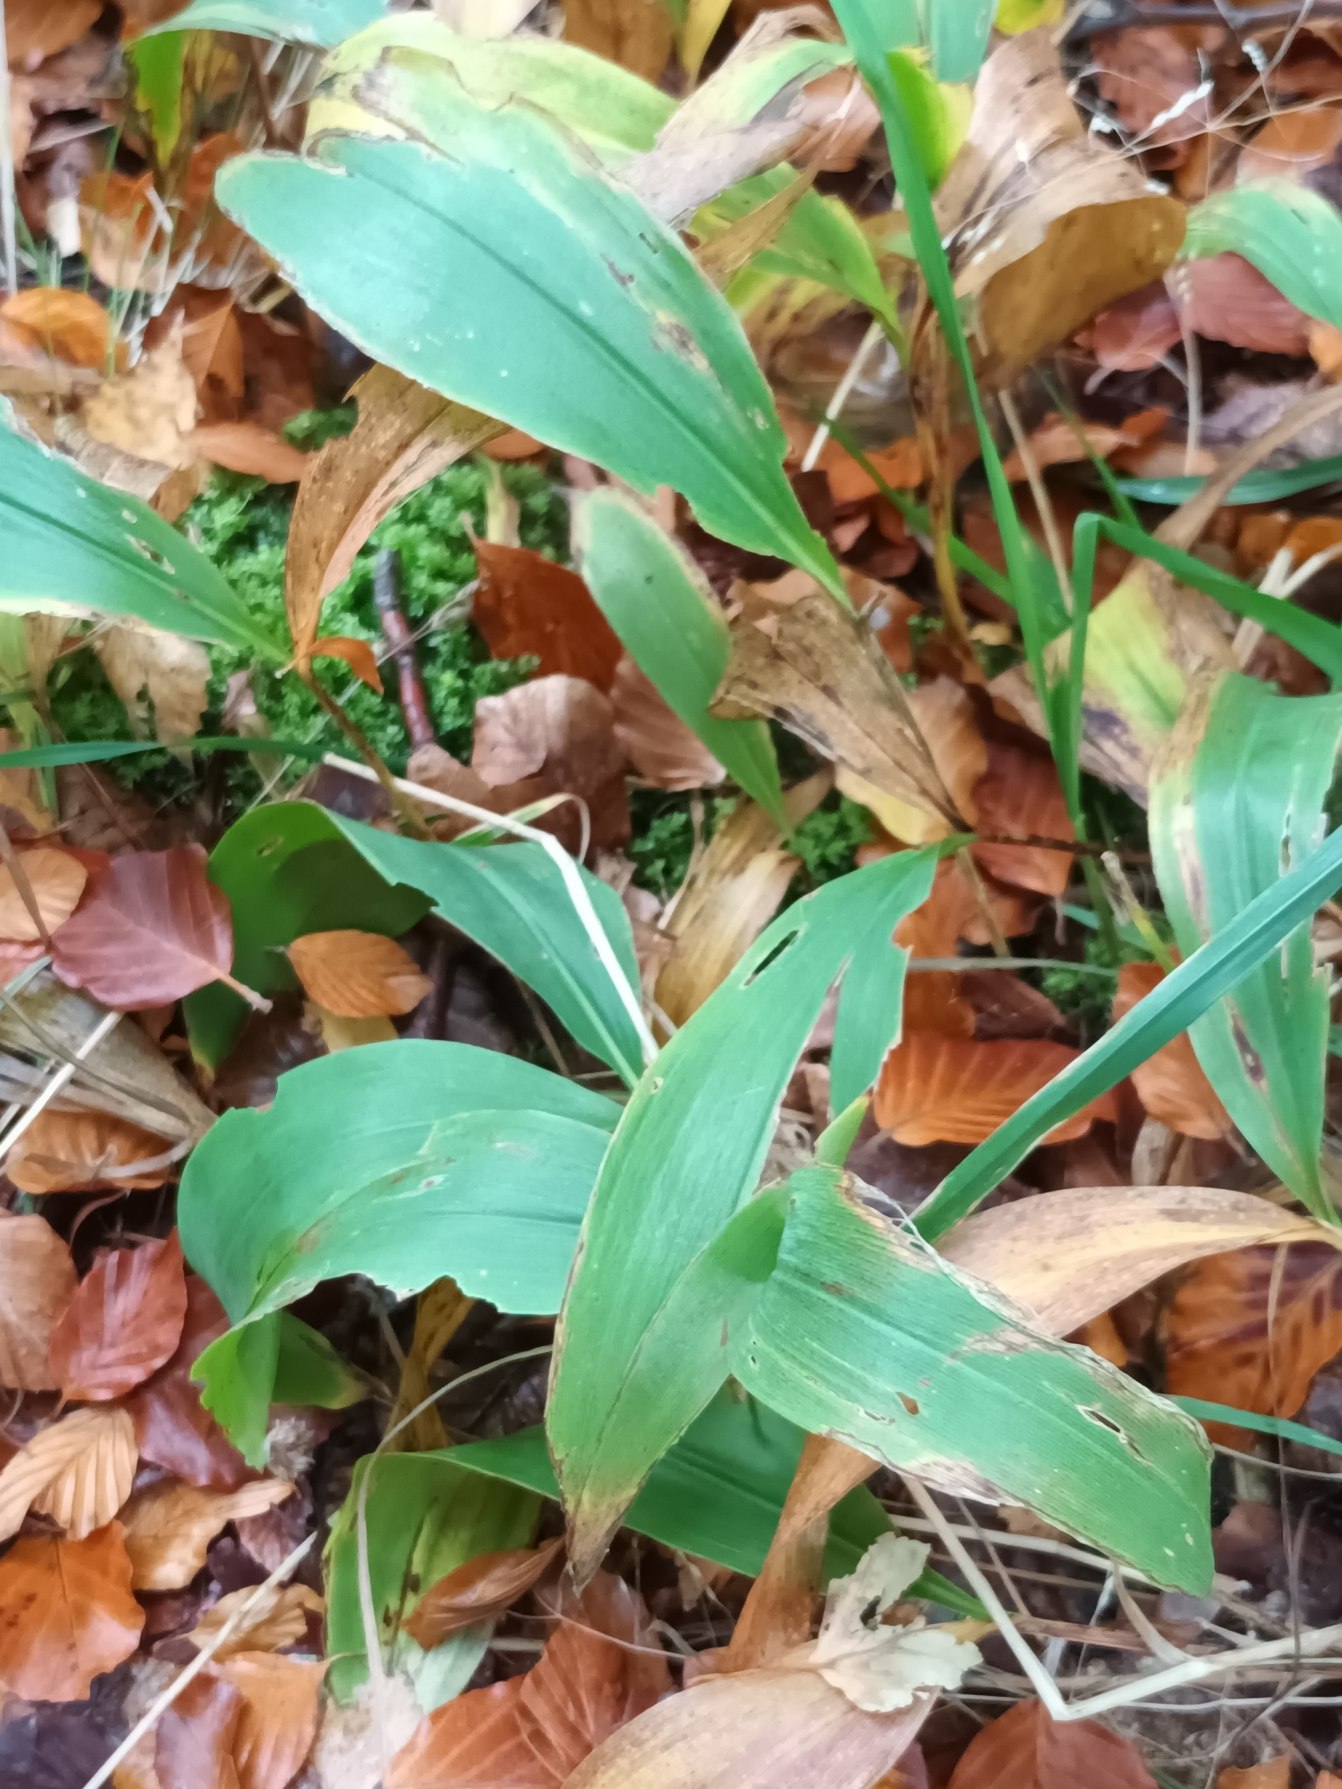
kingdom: Plantae
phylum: Tracheophyta
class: Liliopsida
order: Asparagales
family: Asparagaceae
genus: Convallaria
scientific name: Convallaria majalis
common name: Liljekonval
